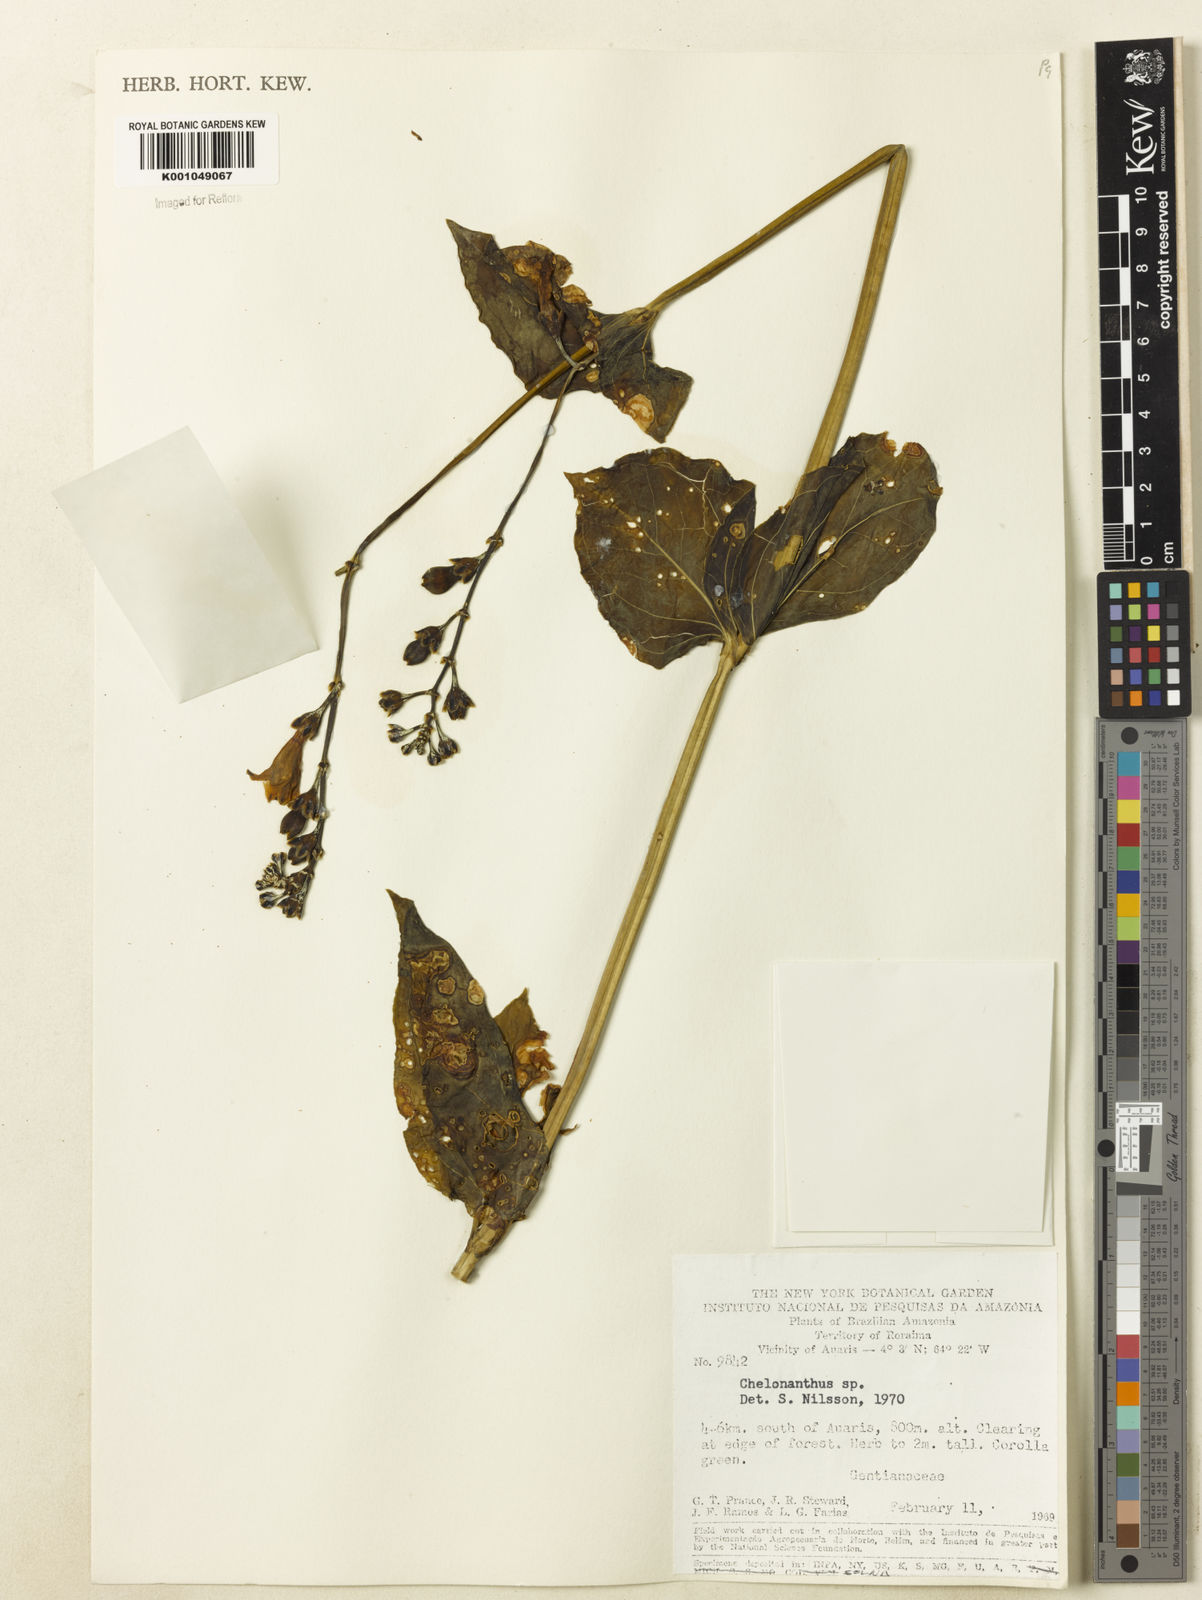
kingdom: Plantae
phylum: Tracheophyta
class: Magnoliopsida
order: Gentianales
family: Gentianaceae
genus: Chelonanthus
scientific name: Chelonanthus
